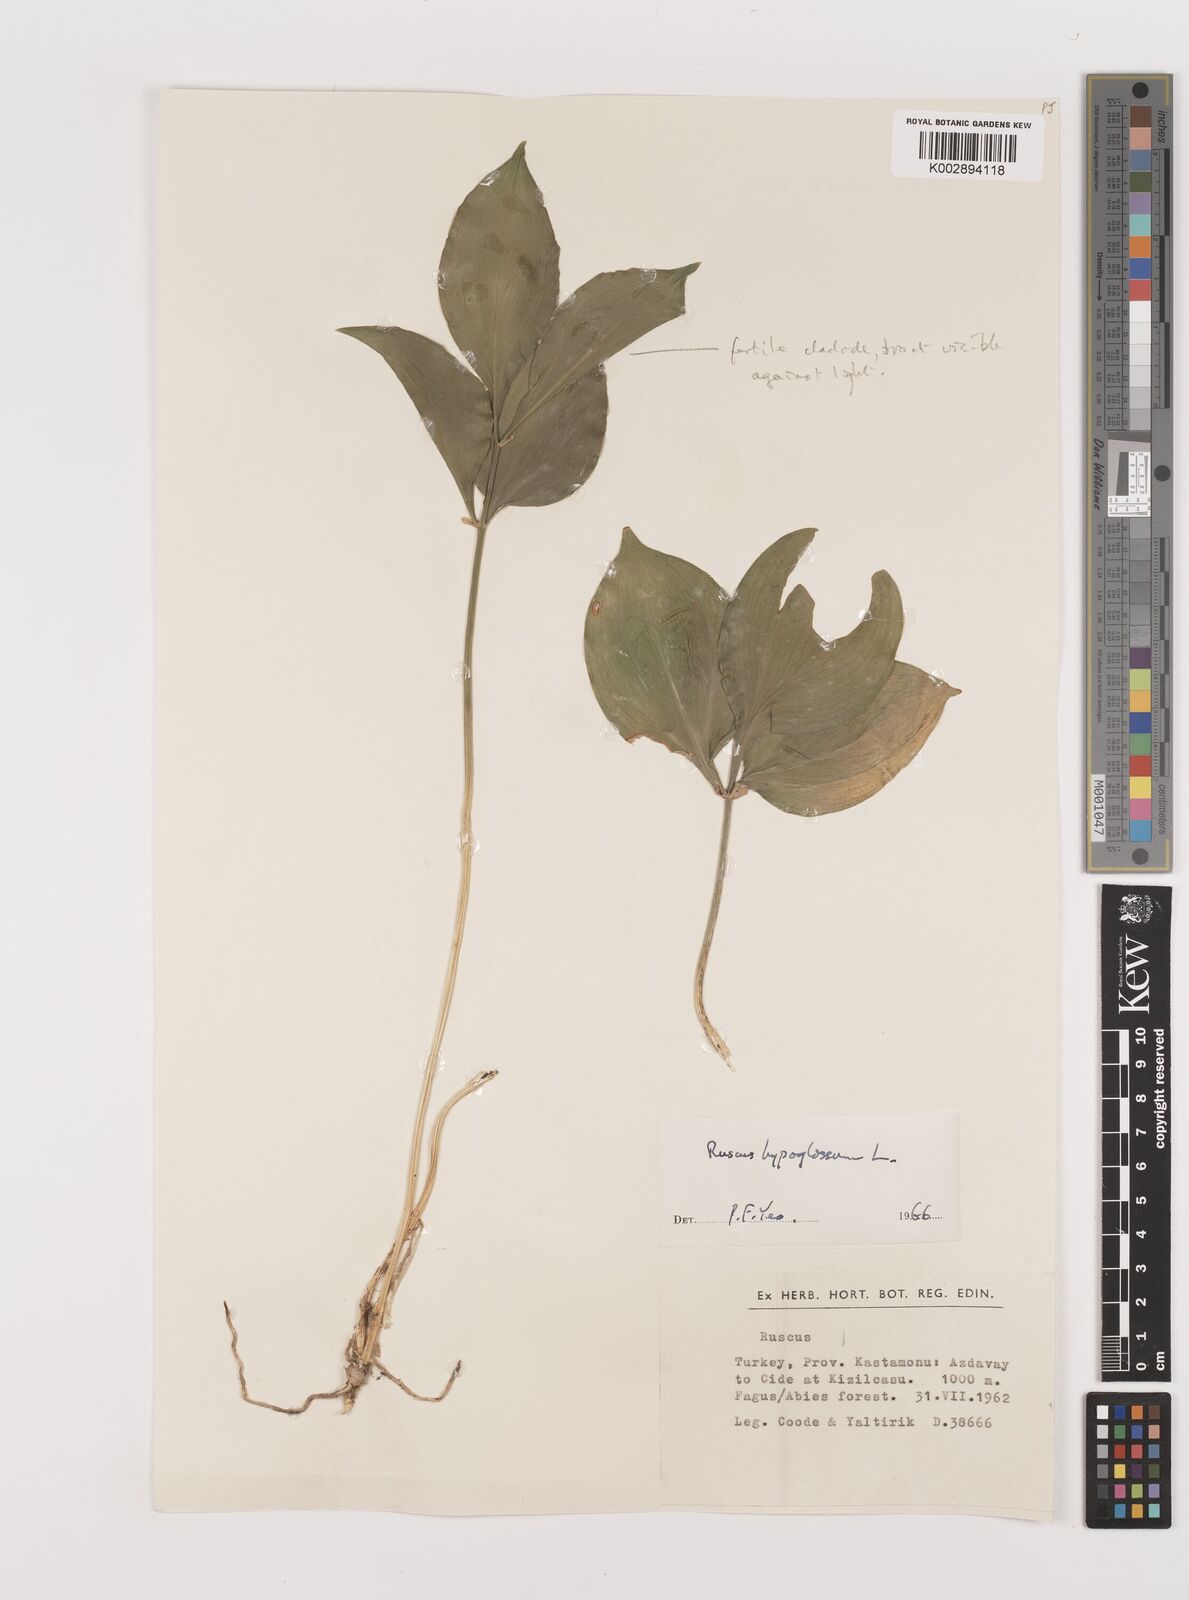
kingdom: Plantae
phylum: Tracheophyta
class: Liliopsida
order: Asparagales
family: Asparagaceae
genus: Ruscus
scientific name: Ruscus hypoglossum
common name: Spineless butcher's-broom
